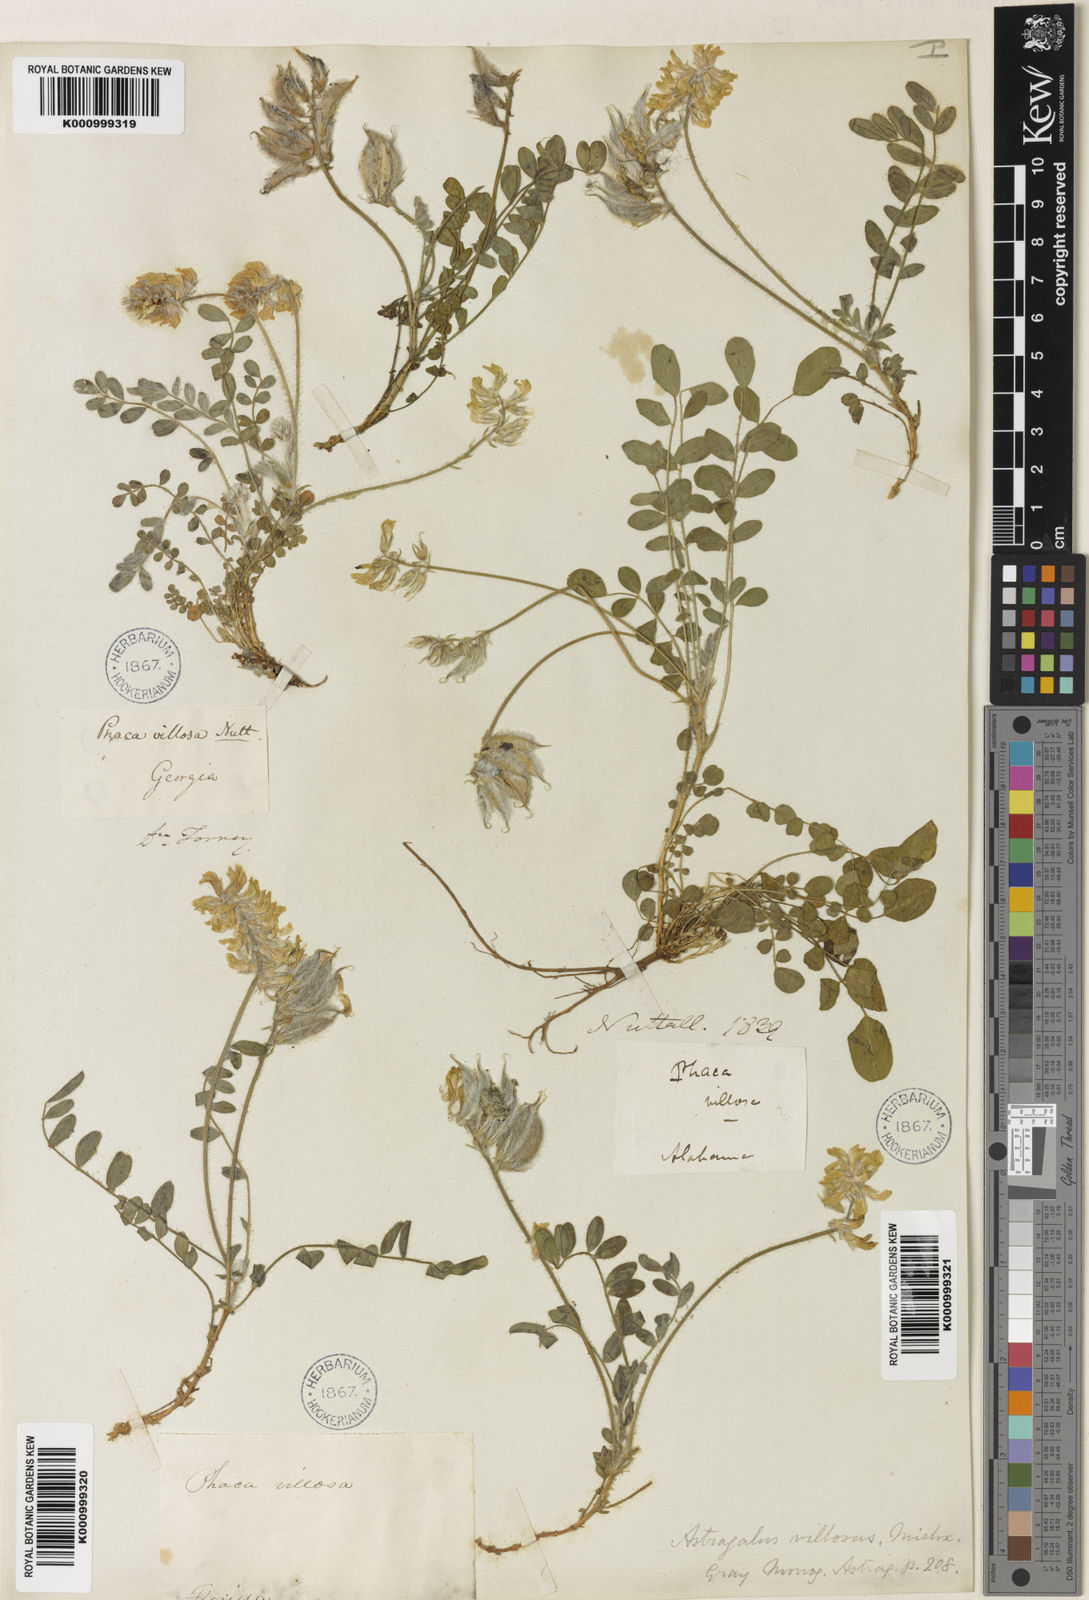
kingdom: Plantae
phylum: Tracheophyta
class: Magnoliopsida
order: Fabales
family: Fabaceae
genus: Astragalus
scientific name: Astragalus villosus
